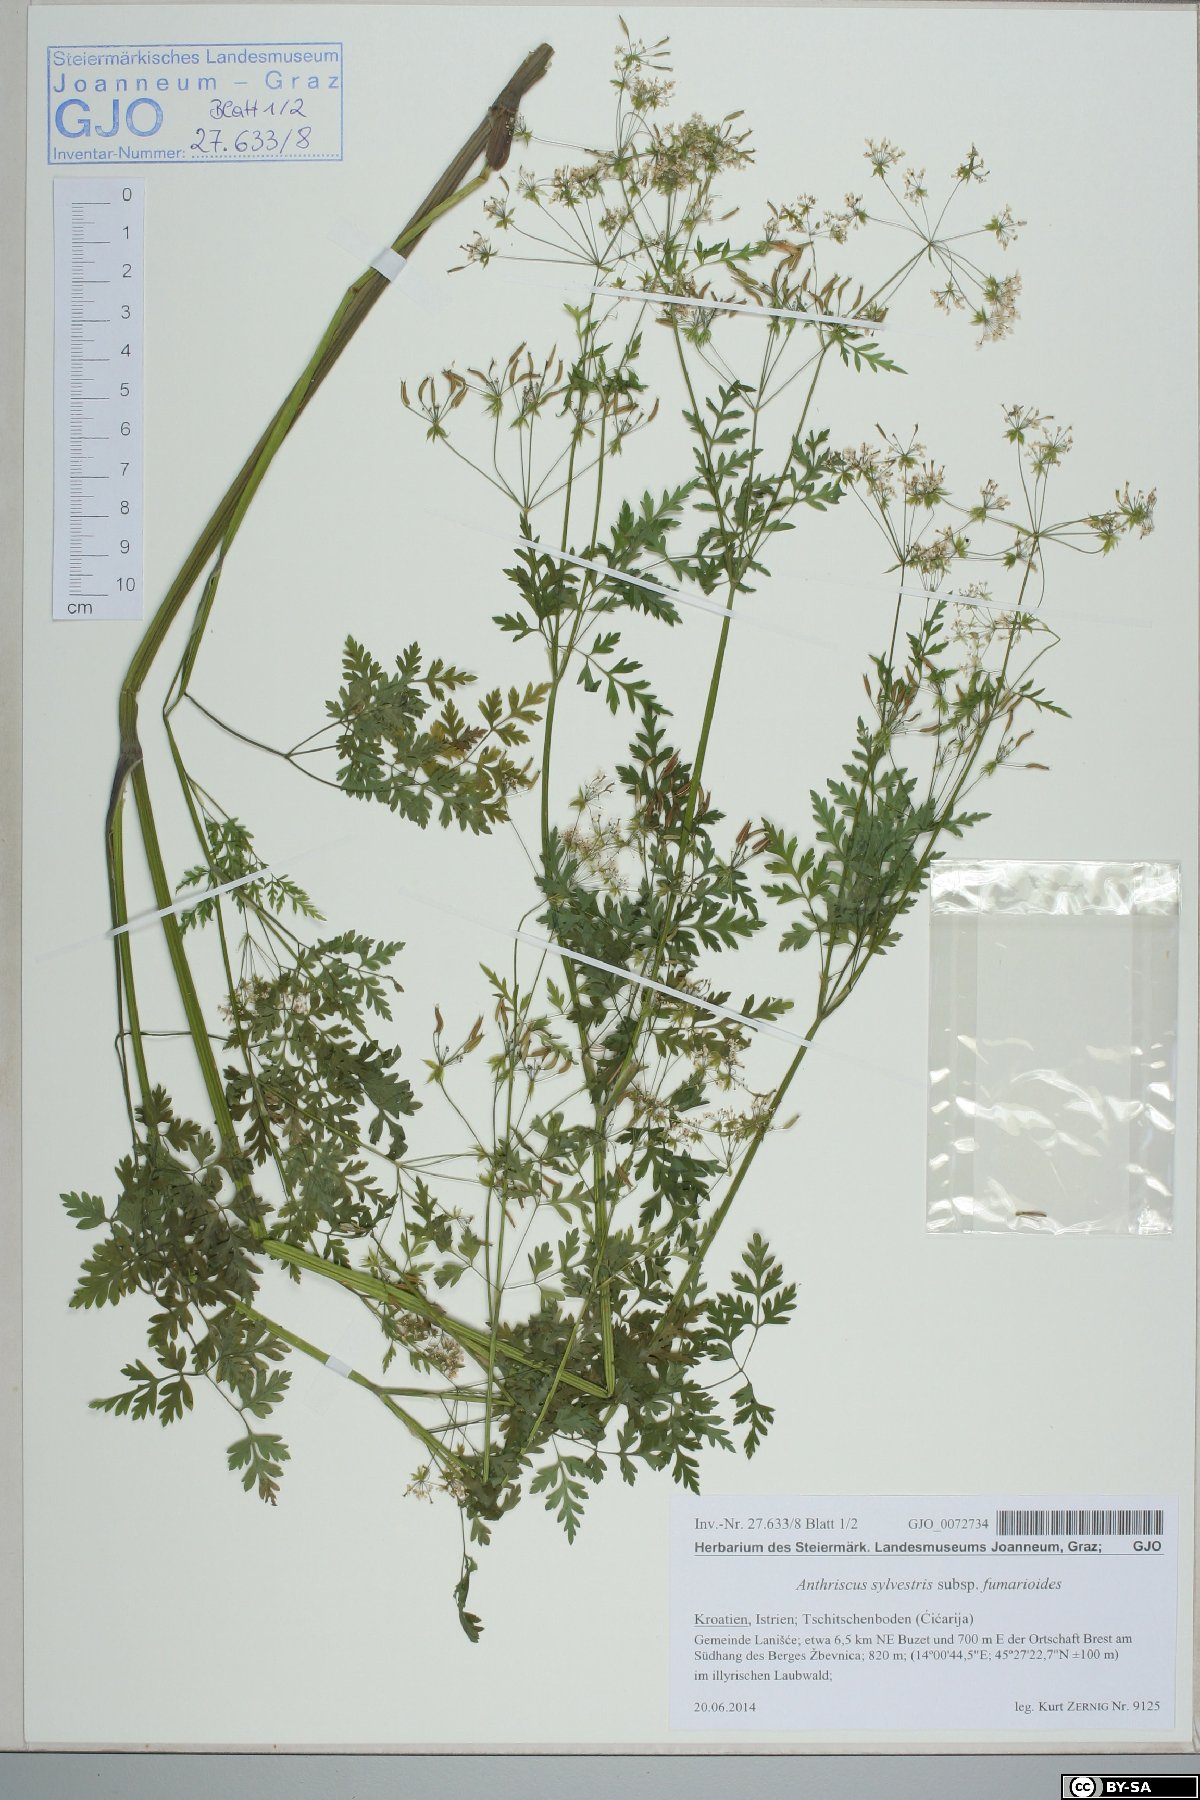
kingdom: Plantae
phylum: Tracheophyta
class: Magnoliopsida
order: Apiales
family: Apiaceae
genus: Anthriscus
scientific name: Anthriscus fumarioides
